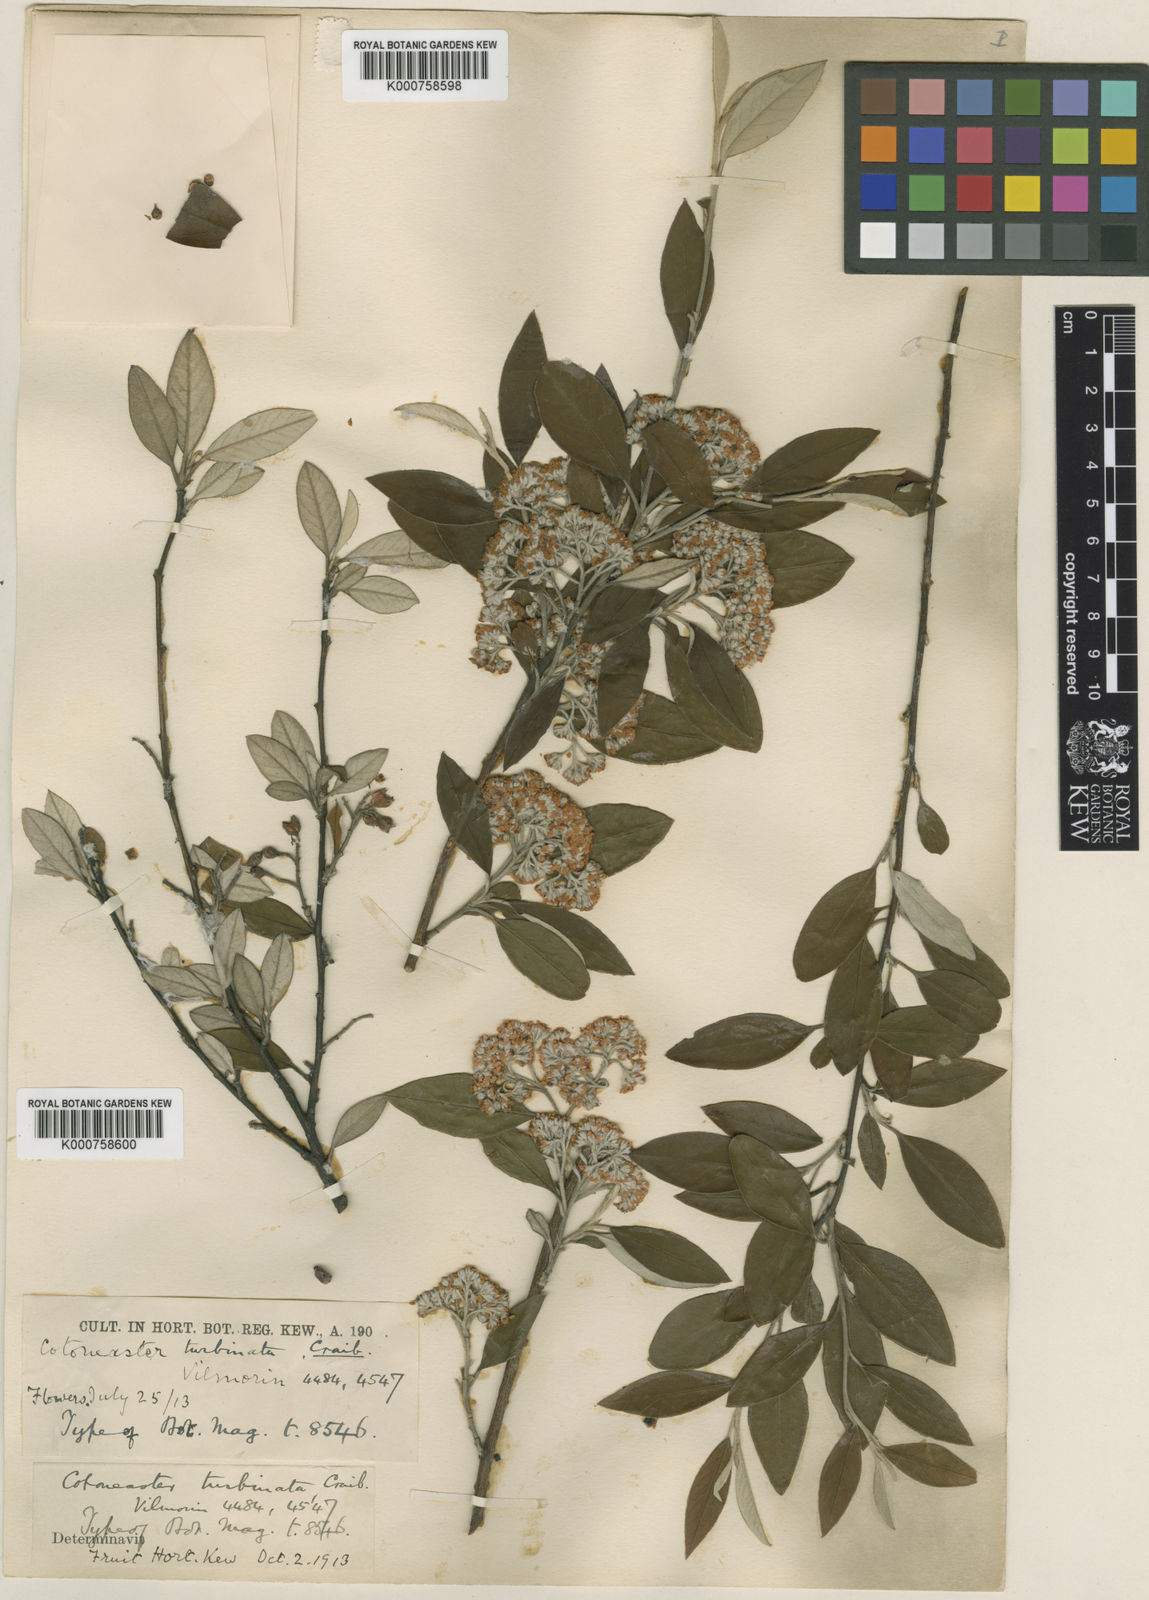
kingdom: Plantae
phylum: Tracheophyta
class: Magnoliopsida
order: Rosales
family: Rosaceae
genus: Cotoneaster
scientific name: Cotoneaster turbinatus
